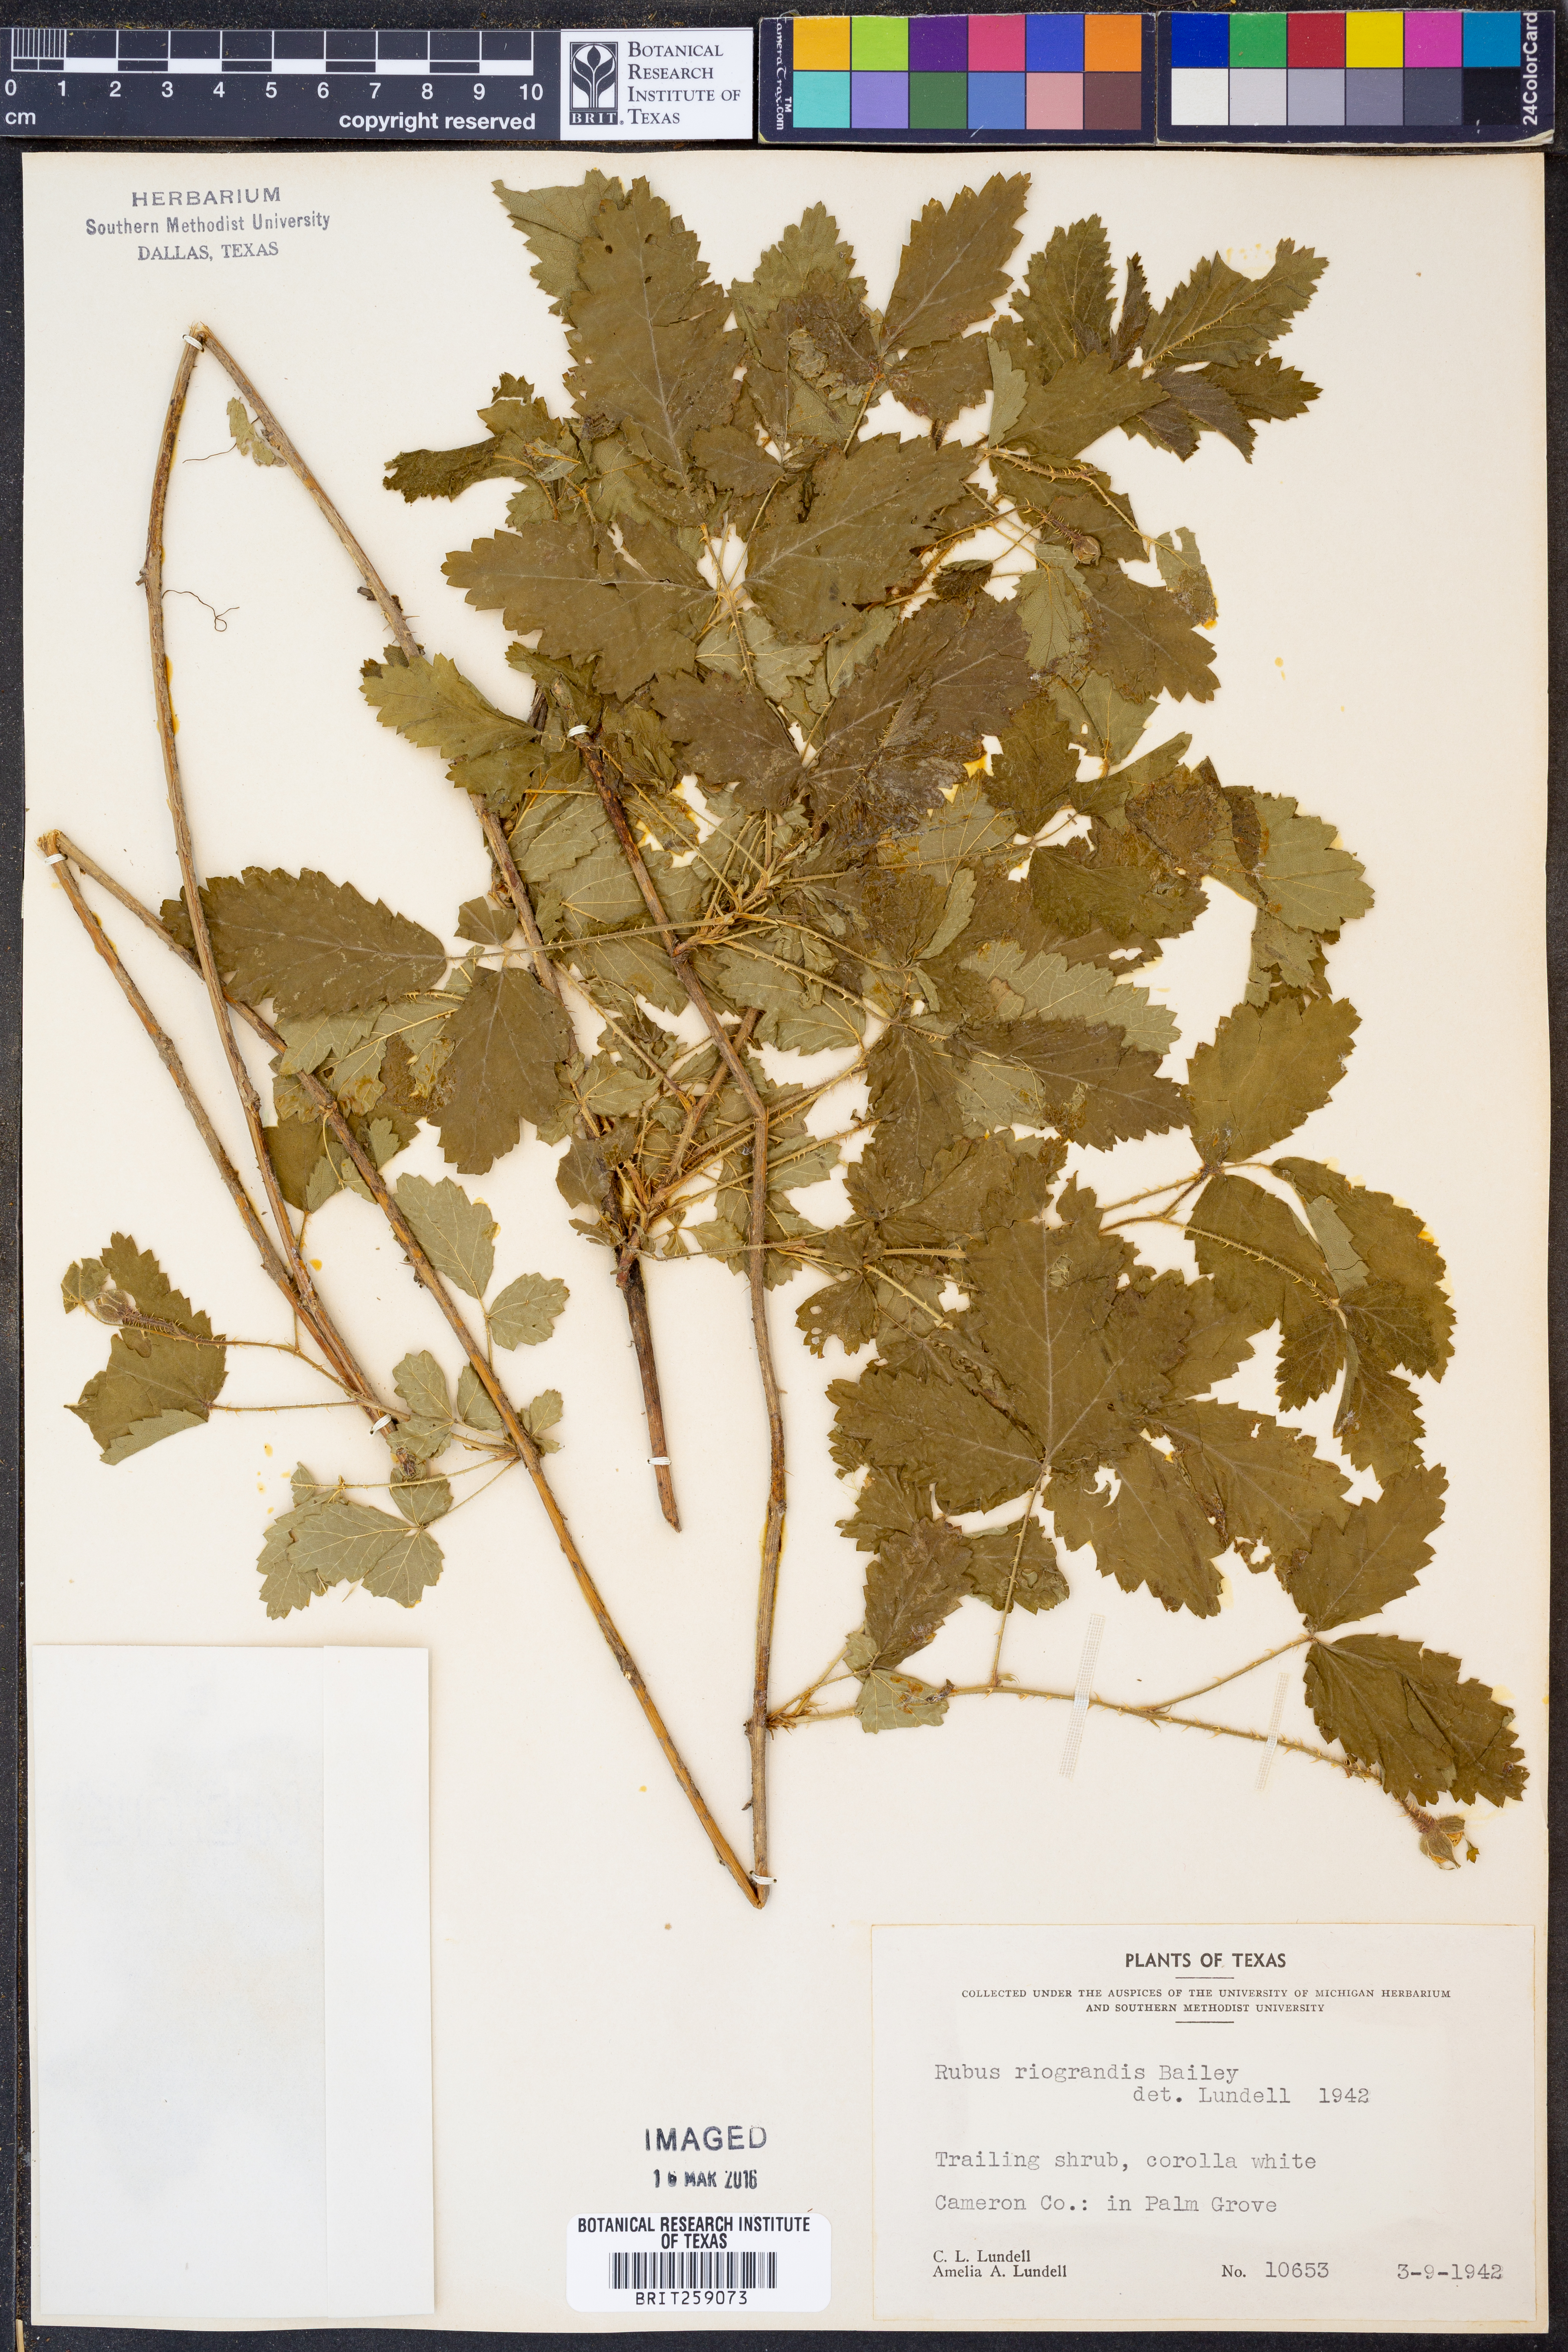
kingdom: Plantae
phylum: Tracheophyta
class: Magnoliopsida
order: Rosales
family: Rosaceae
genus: Rubus
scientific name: Rubus riograndis
